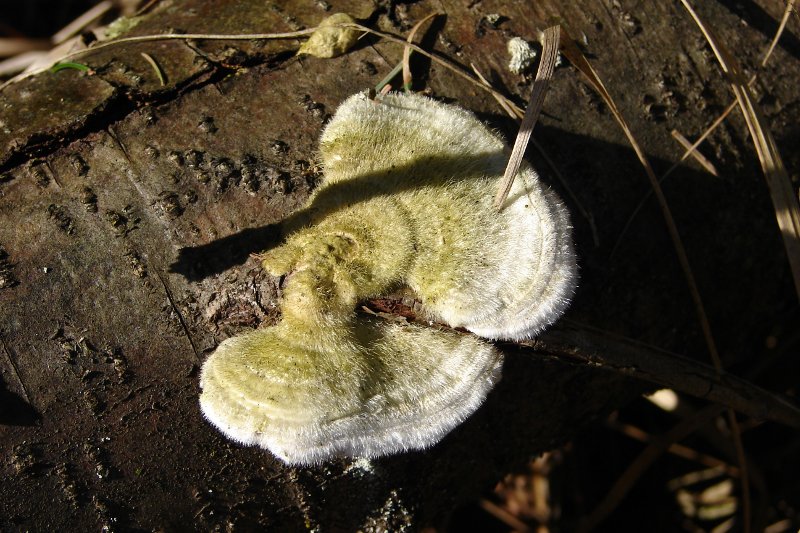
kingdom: Fungi
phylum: Basidiomycota
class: Agaricomycetes
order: Polyporales
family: Polyporaceae
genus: Trametes
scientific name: Trametes hirsuta
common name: håret læderporesvamp
